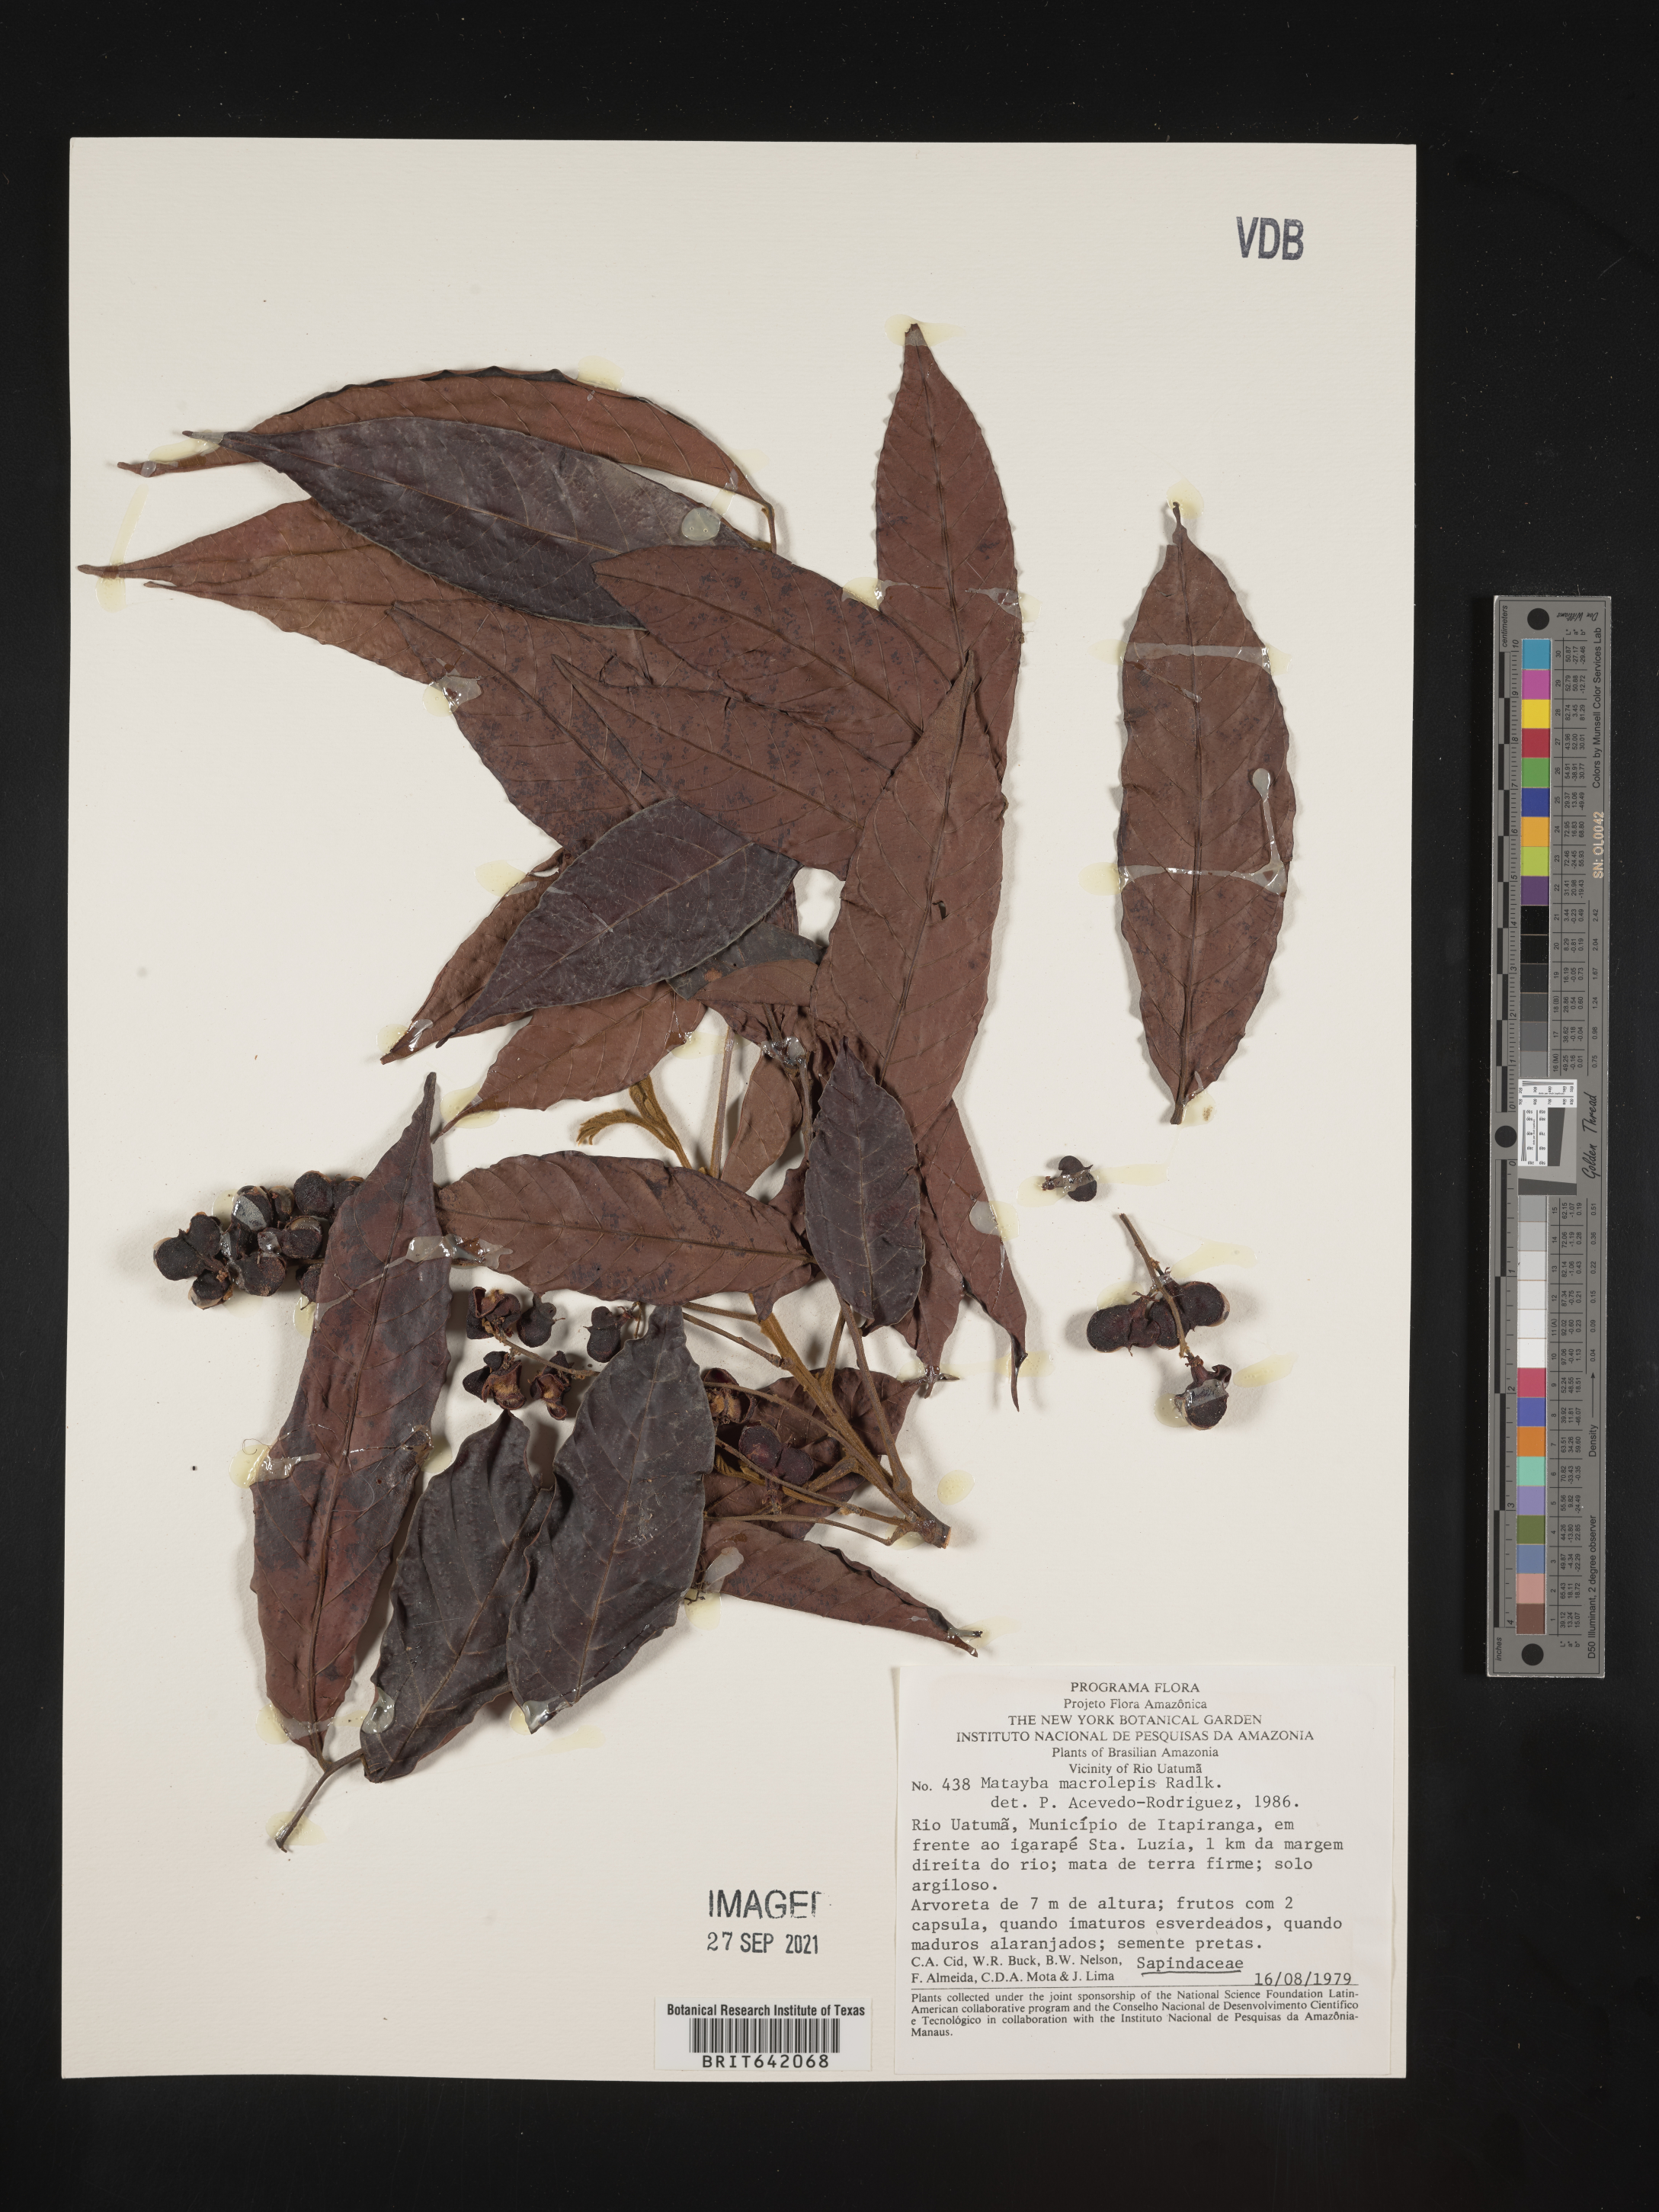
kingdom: Plantae
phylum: Tracheophyta
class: Magnoliopsida
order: Sapindales
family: Sapindaceae
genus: Matayba
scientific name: Matayba
